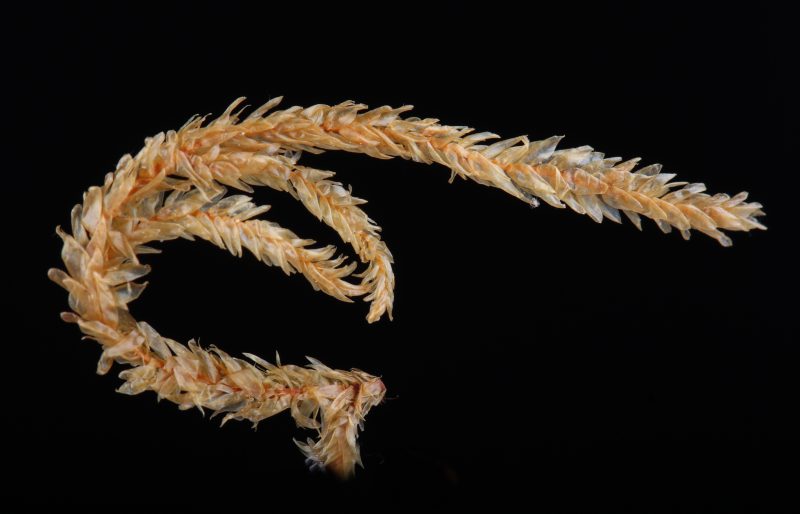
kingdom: Plantae
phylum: Bryophyta
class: Bryopsida
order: Hypnales
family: Symphyodontaceae
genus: Symphyodon
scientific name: Symphyodon perrottetii
